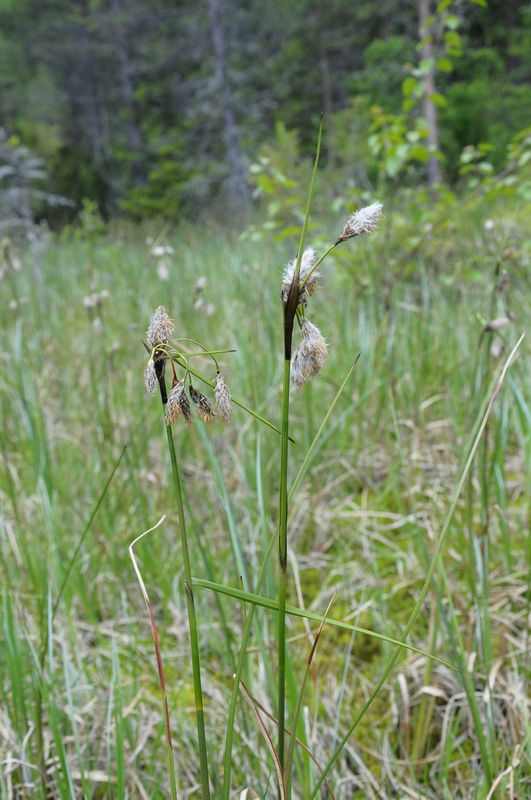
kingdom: Plantae
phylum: Tracheophyta
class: Liliopsida
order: Poales
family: Cyperaceae
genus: Eriophorum
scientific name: Eriophorum angustifolium
